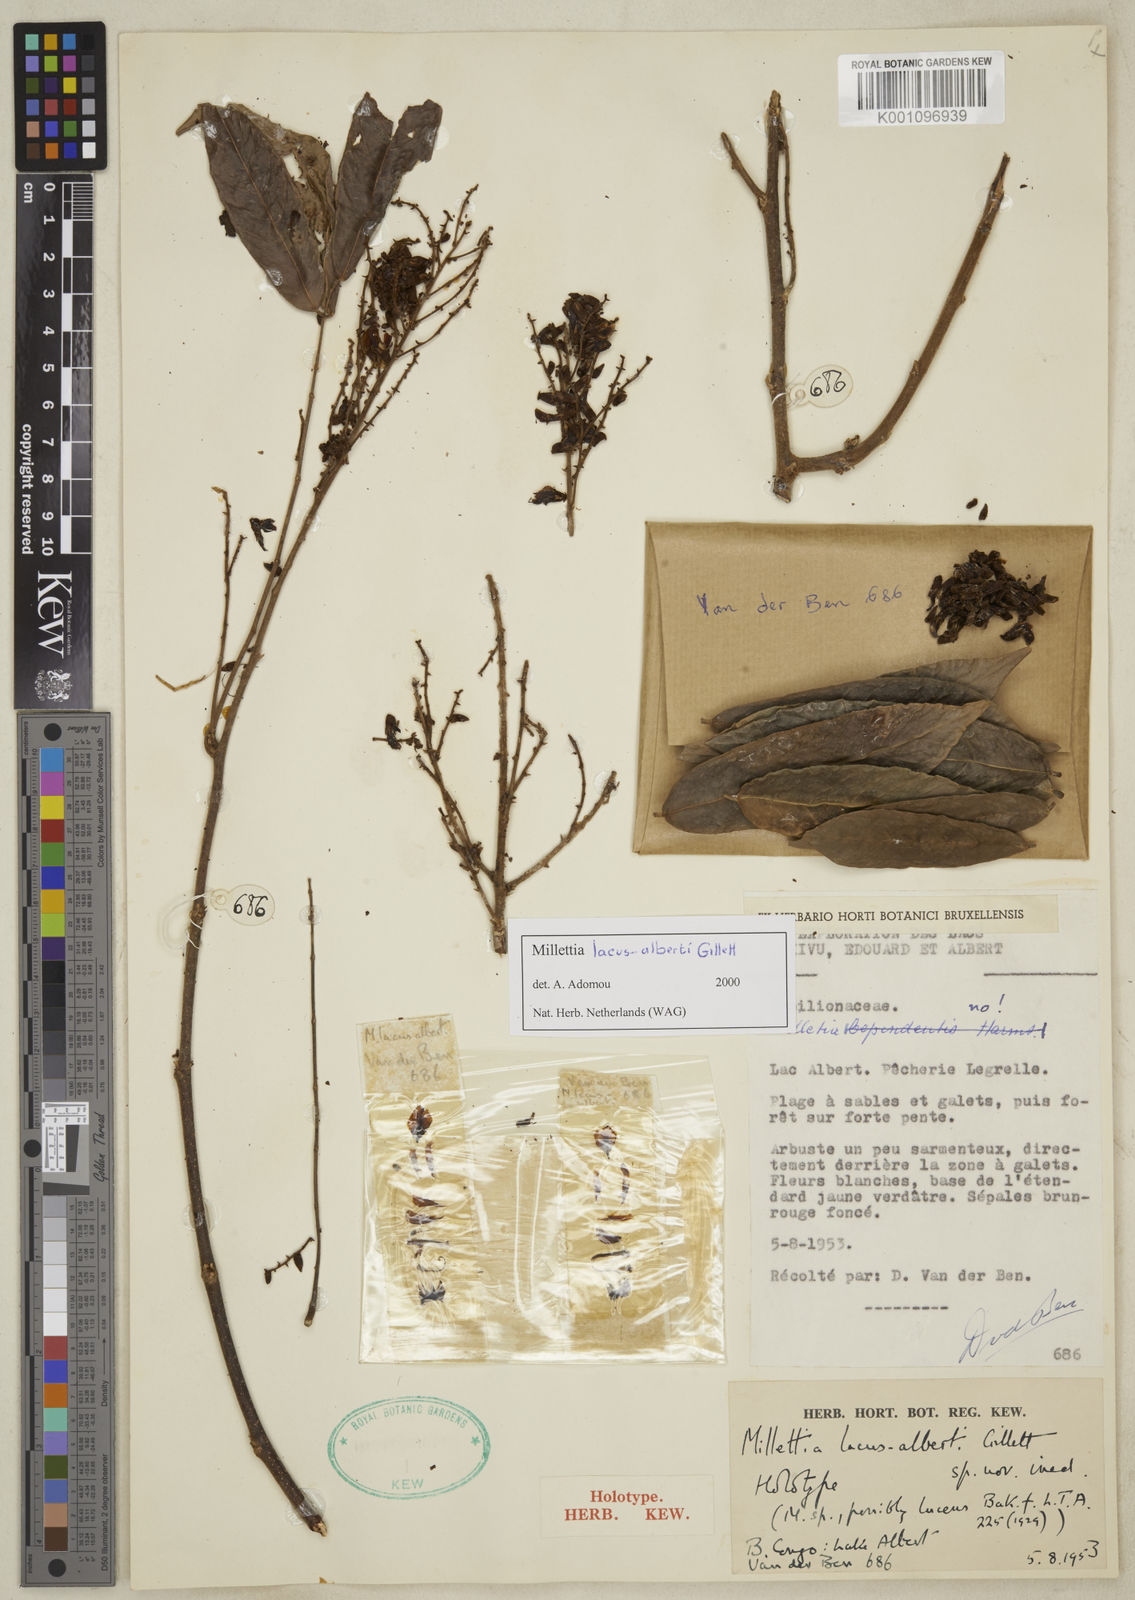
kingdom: Plantae
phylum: Tracheophyta
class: Magnoliopsida
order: Fabales
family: Fabaceae
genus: Millettia
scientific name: Millettia lacus-alberti
